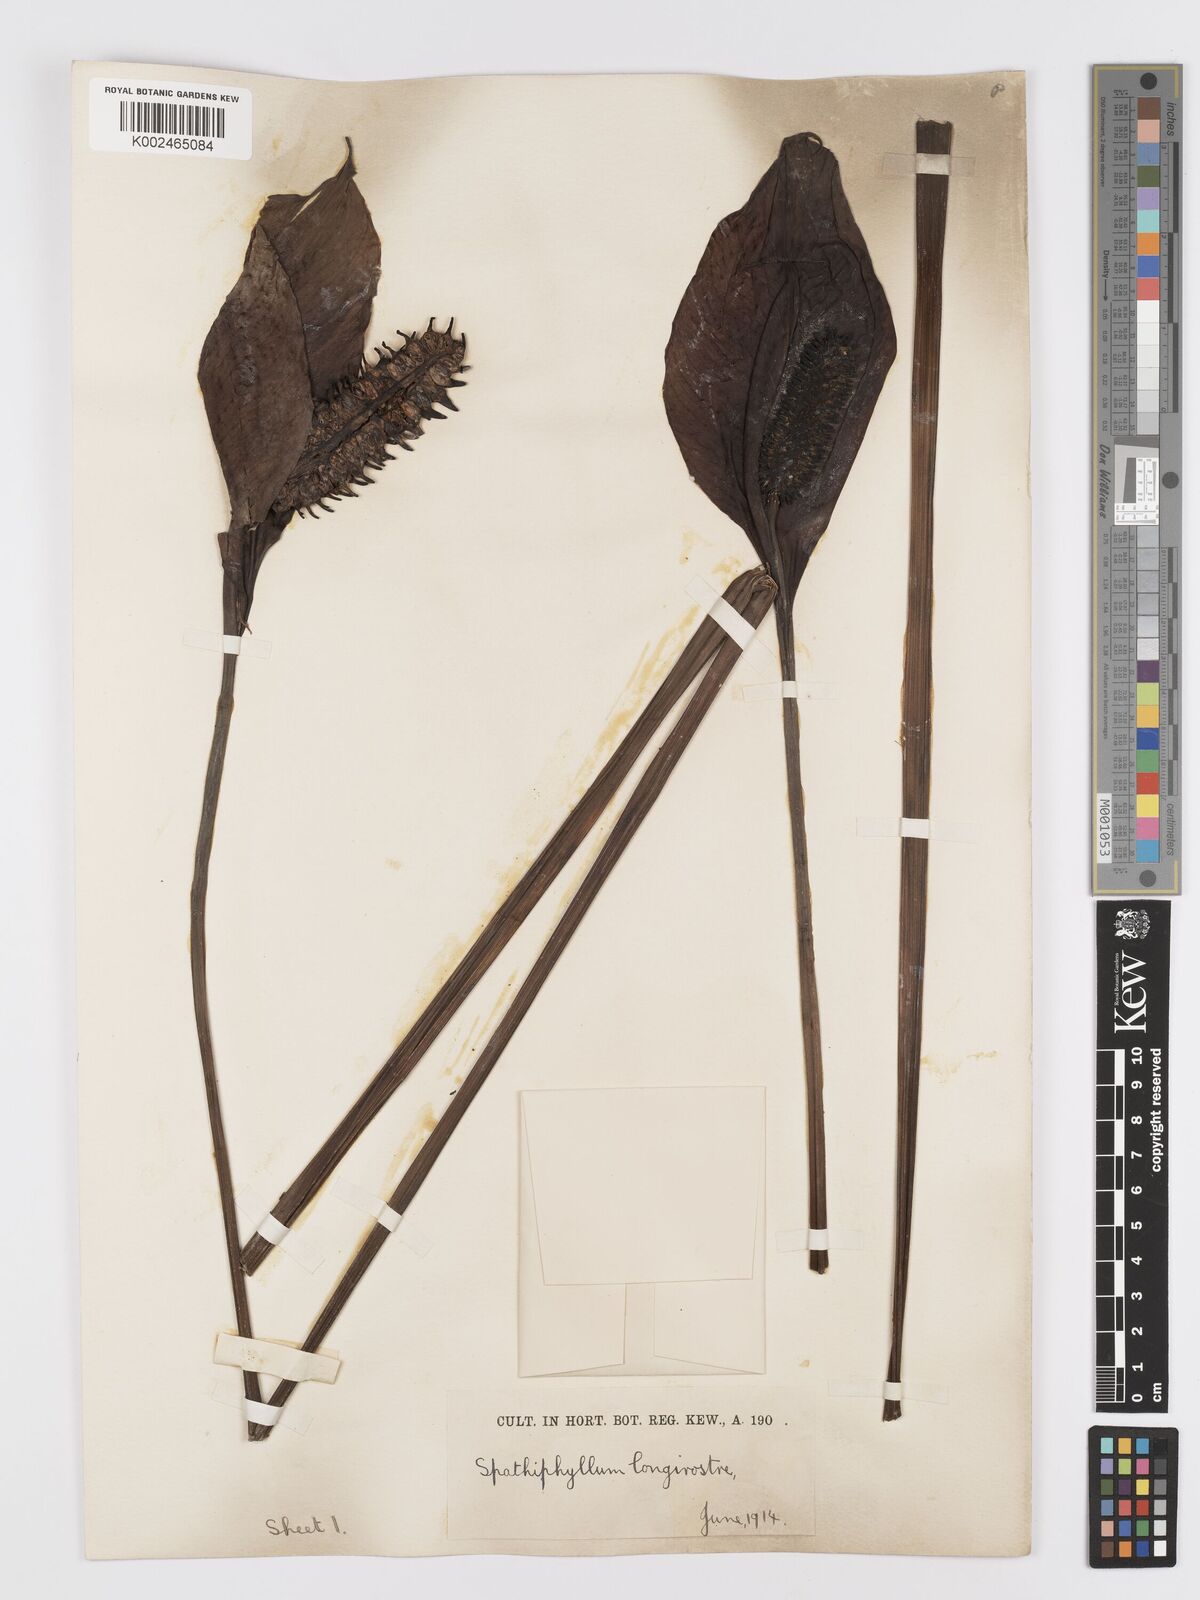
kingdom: Plantae
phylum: Tracheophyta
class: Liliopsida
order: Alismatales
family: Araceae
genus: Spathiphyllum
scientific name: Spathiphyllum cochlearispathum
